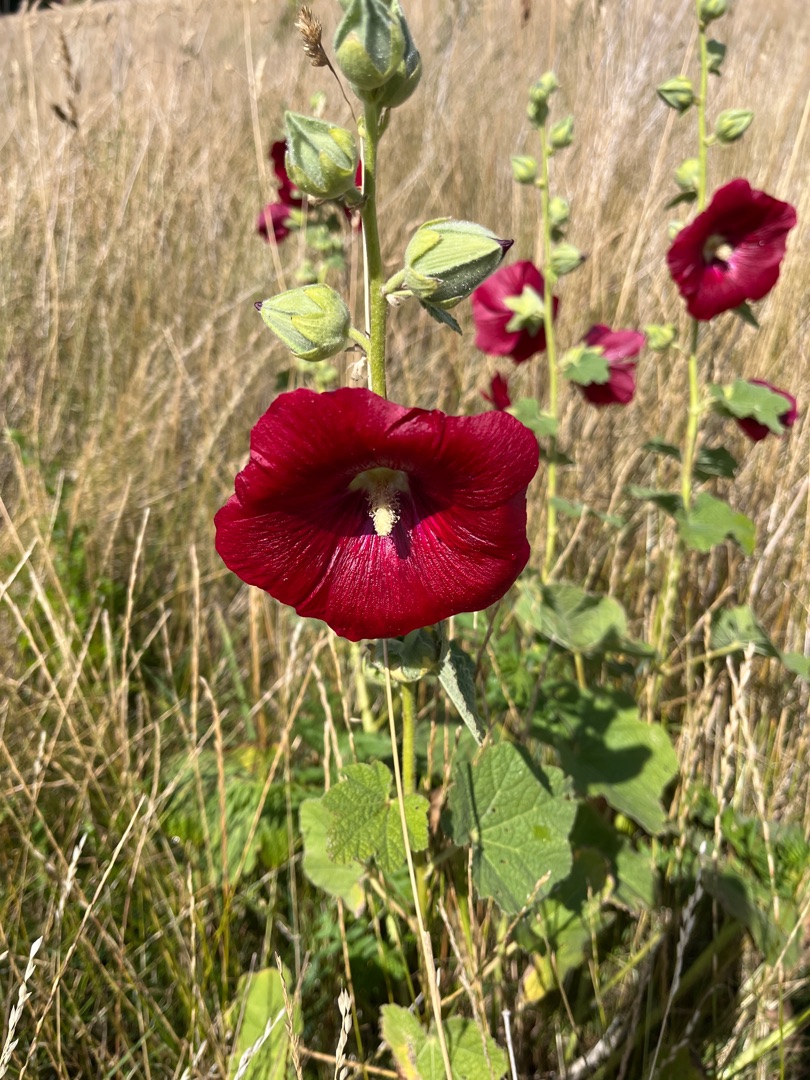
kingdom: Plantae
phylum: Tracheophyta
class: Magnoliopsida
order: Malvales
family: Malvaceae
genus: Alcea
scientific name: Alcea rosea
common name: Have-stokrose
